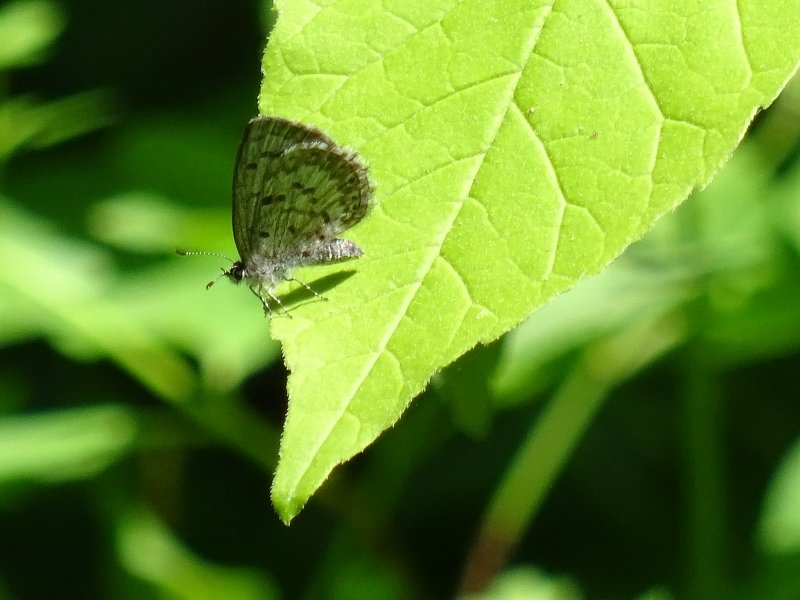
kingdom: Animalia
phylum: Arthropoda
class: Insecta
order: Lepidoptera
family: Lycaenidae
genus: Celastrina
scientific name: Celastrina
